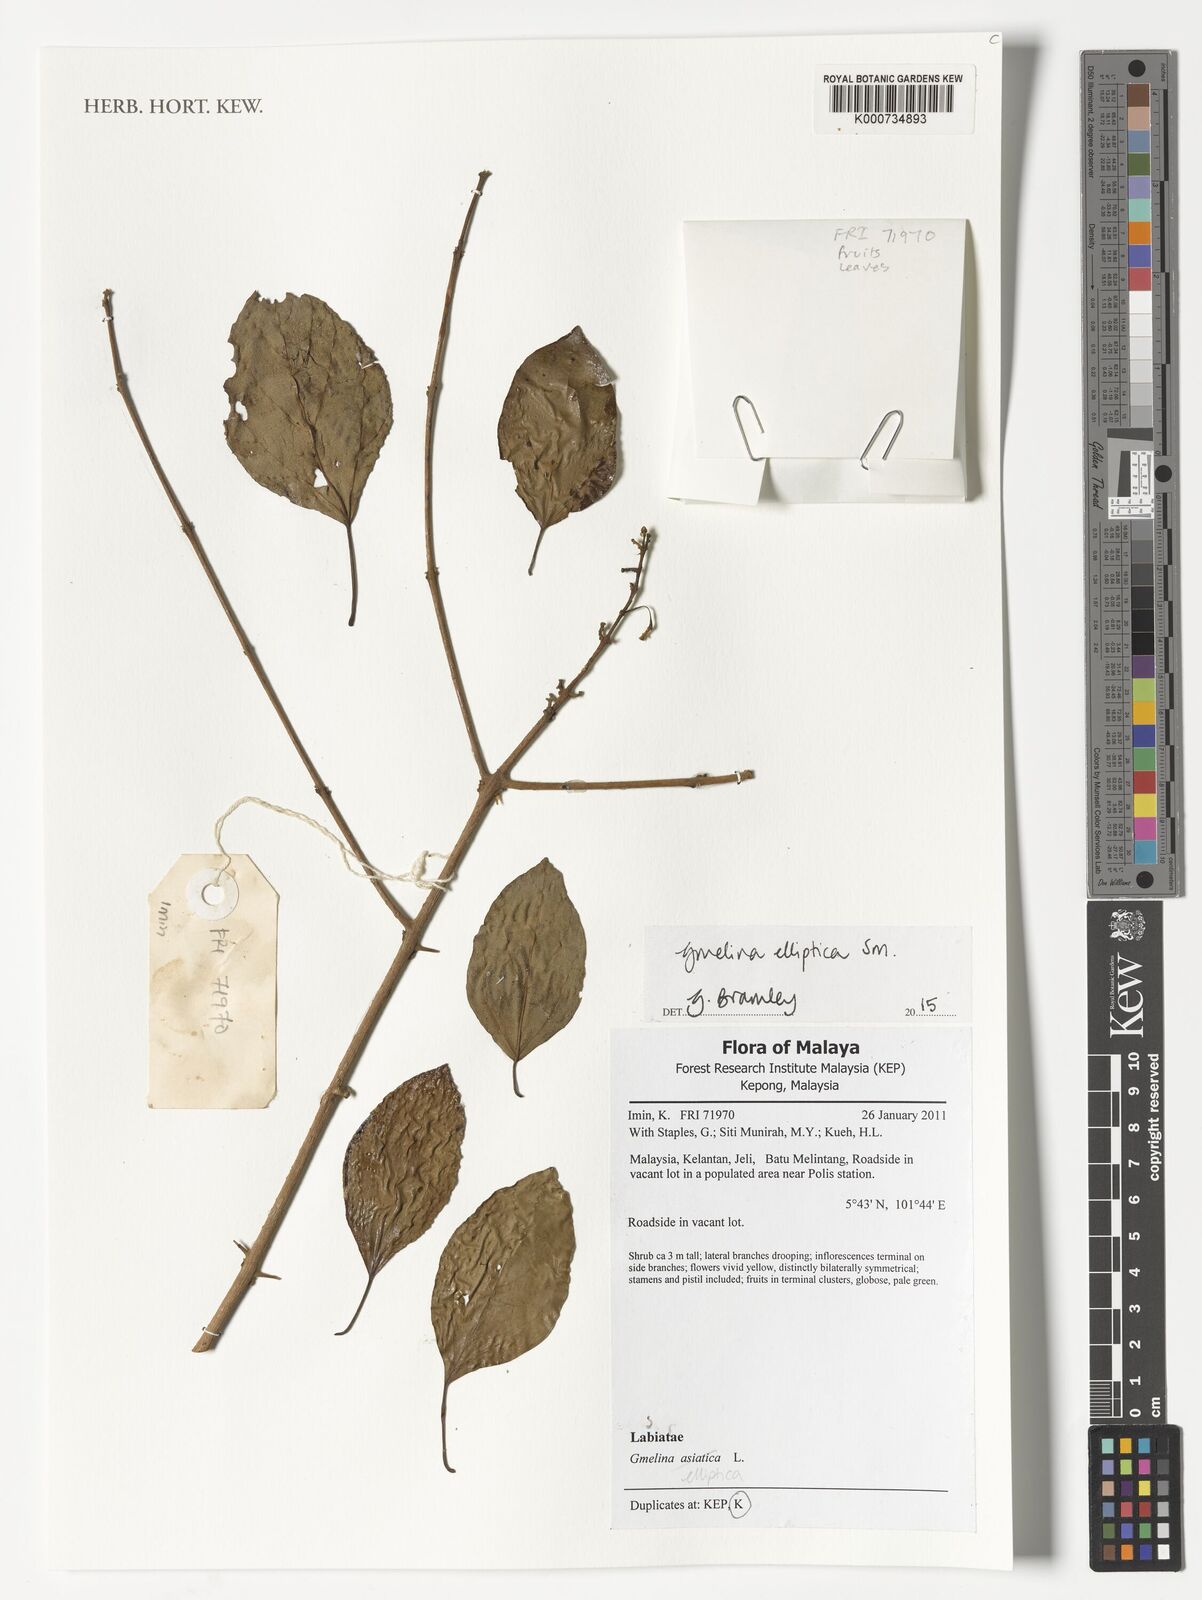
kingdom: Plantae
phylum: Tracheophyta
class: Magnoliopsida
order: Lamiales
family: Lamiaceae
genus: Gmelina
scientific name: Gmelina elliptica
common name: Badhara-bush
